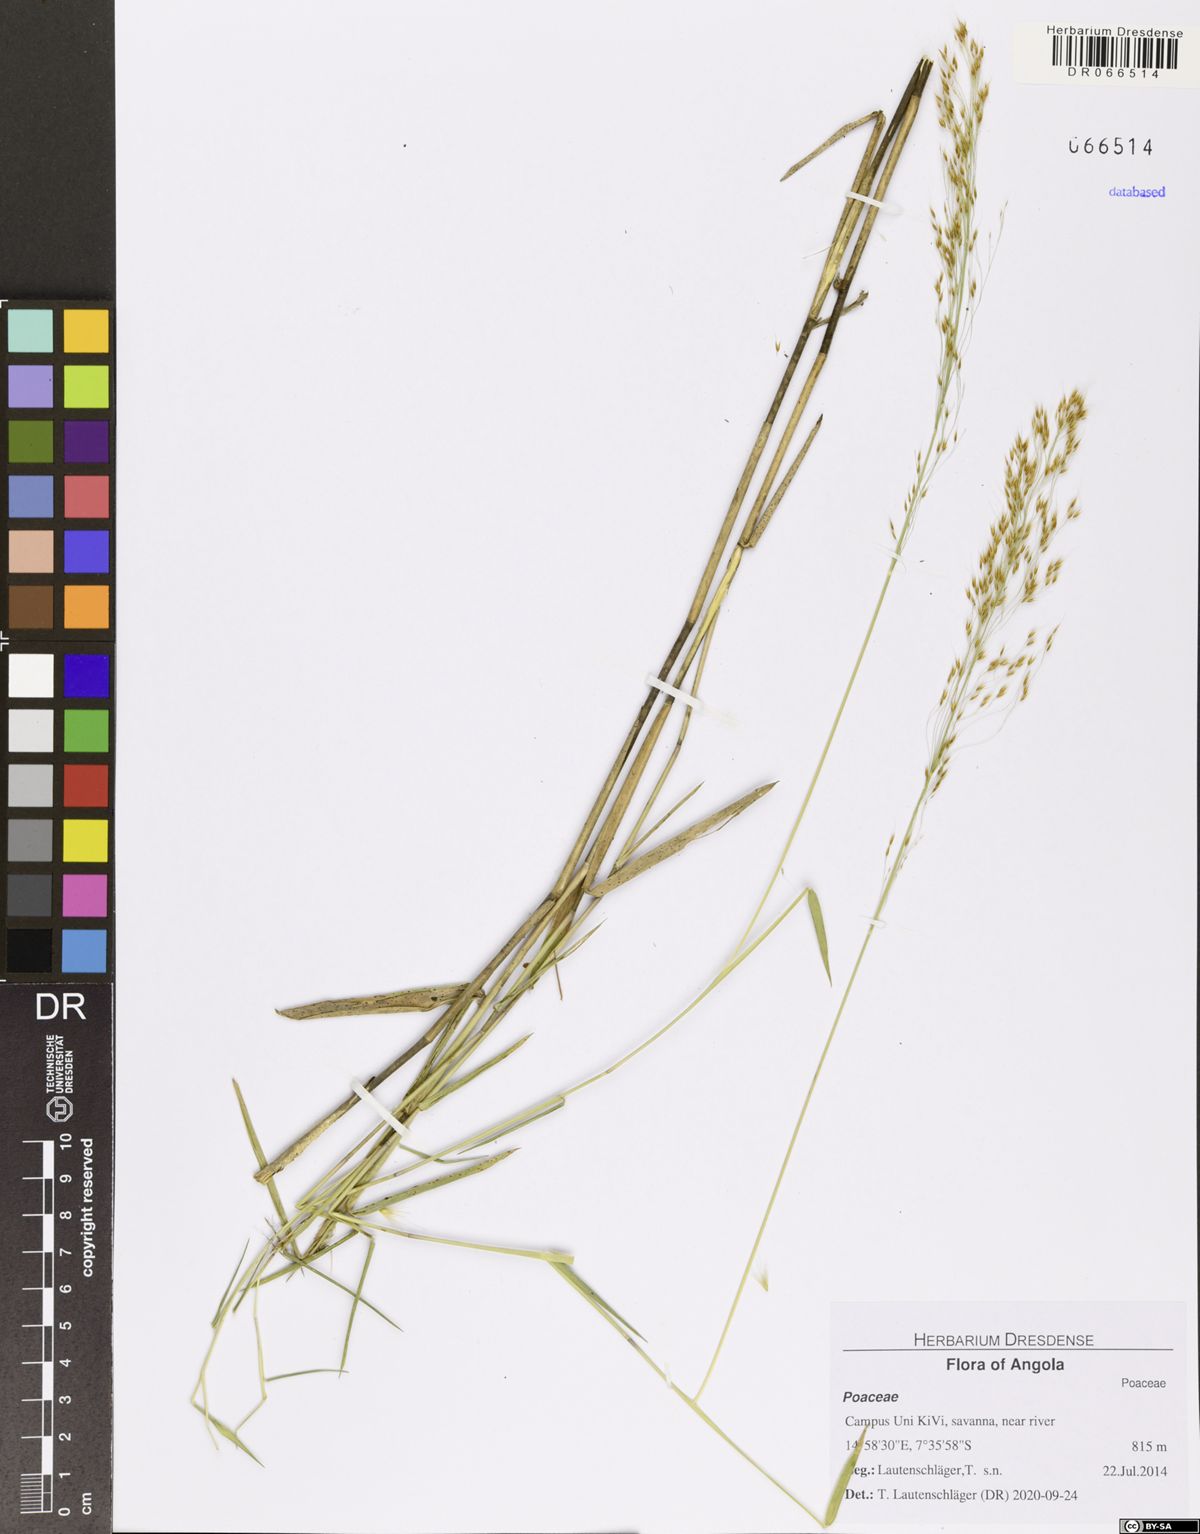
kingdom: Plantae
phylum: Tracheophyta
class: Liliopsida
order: Poales
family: Poaceae
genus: Trichopteryx
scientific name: Trichopteryx
